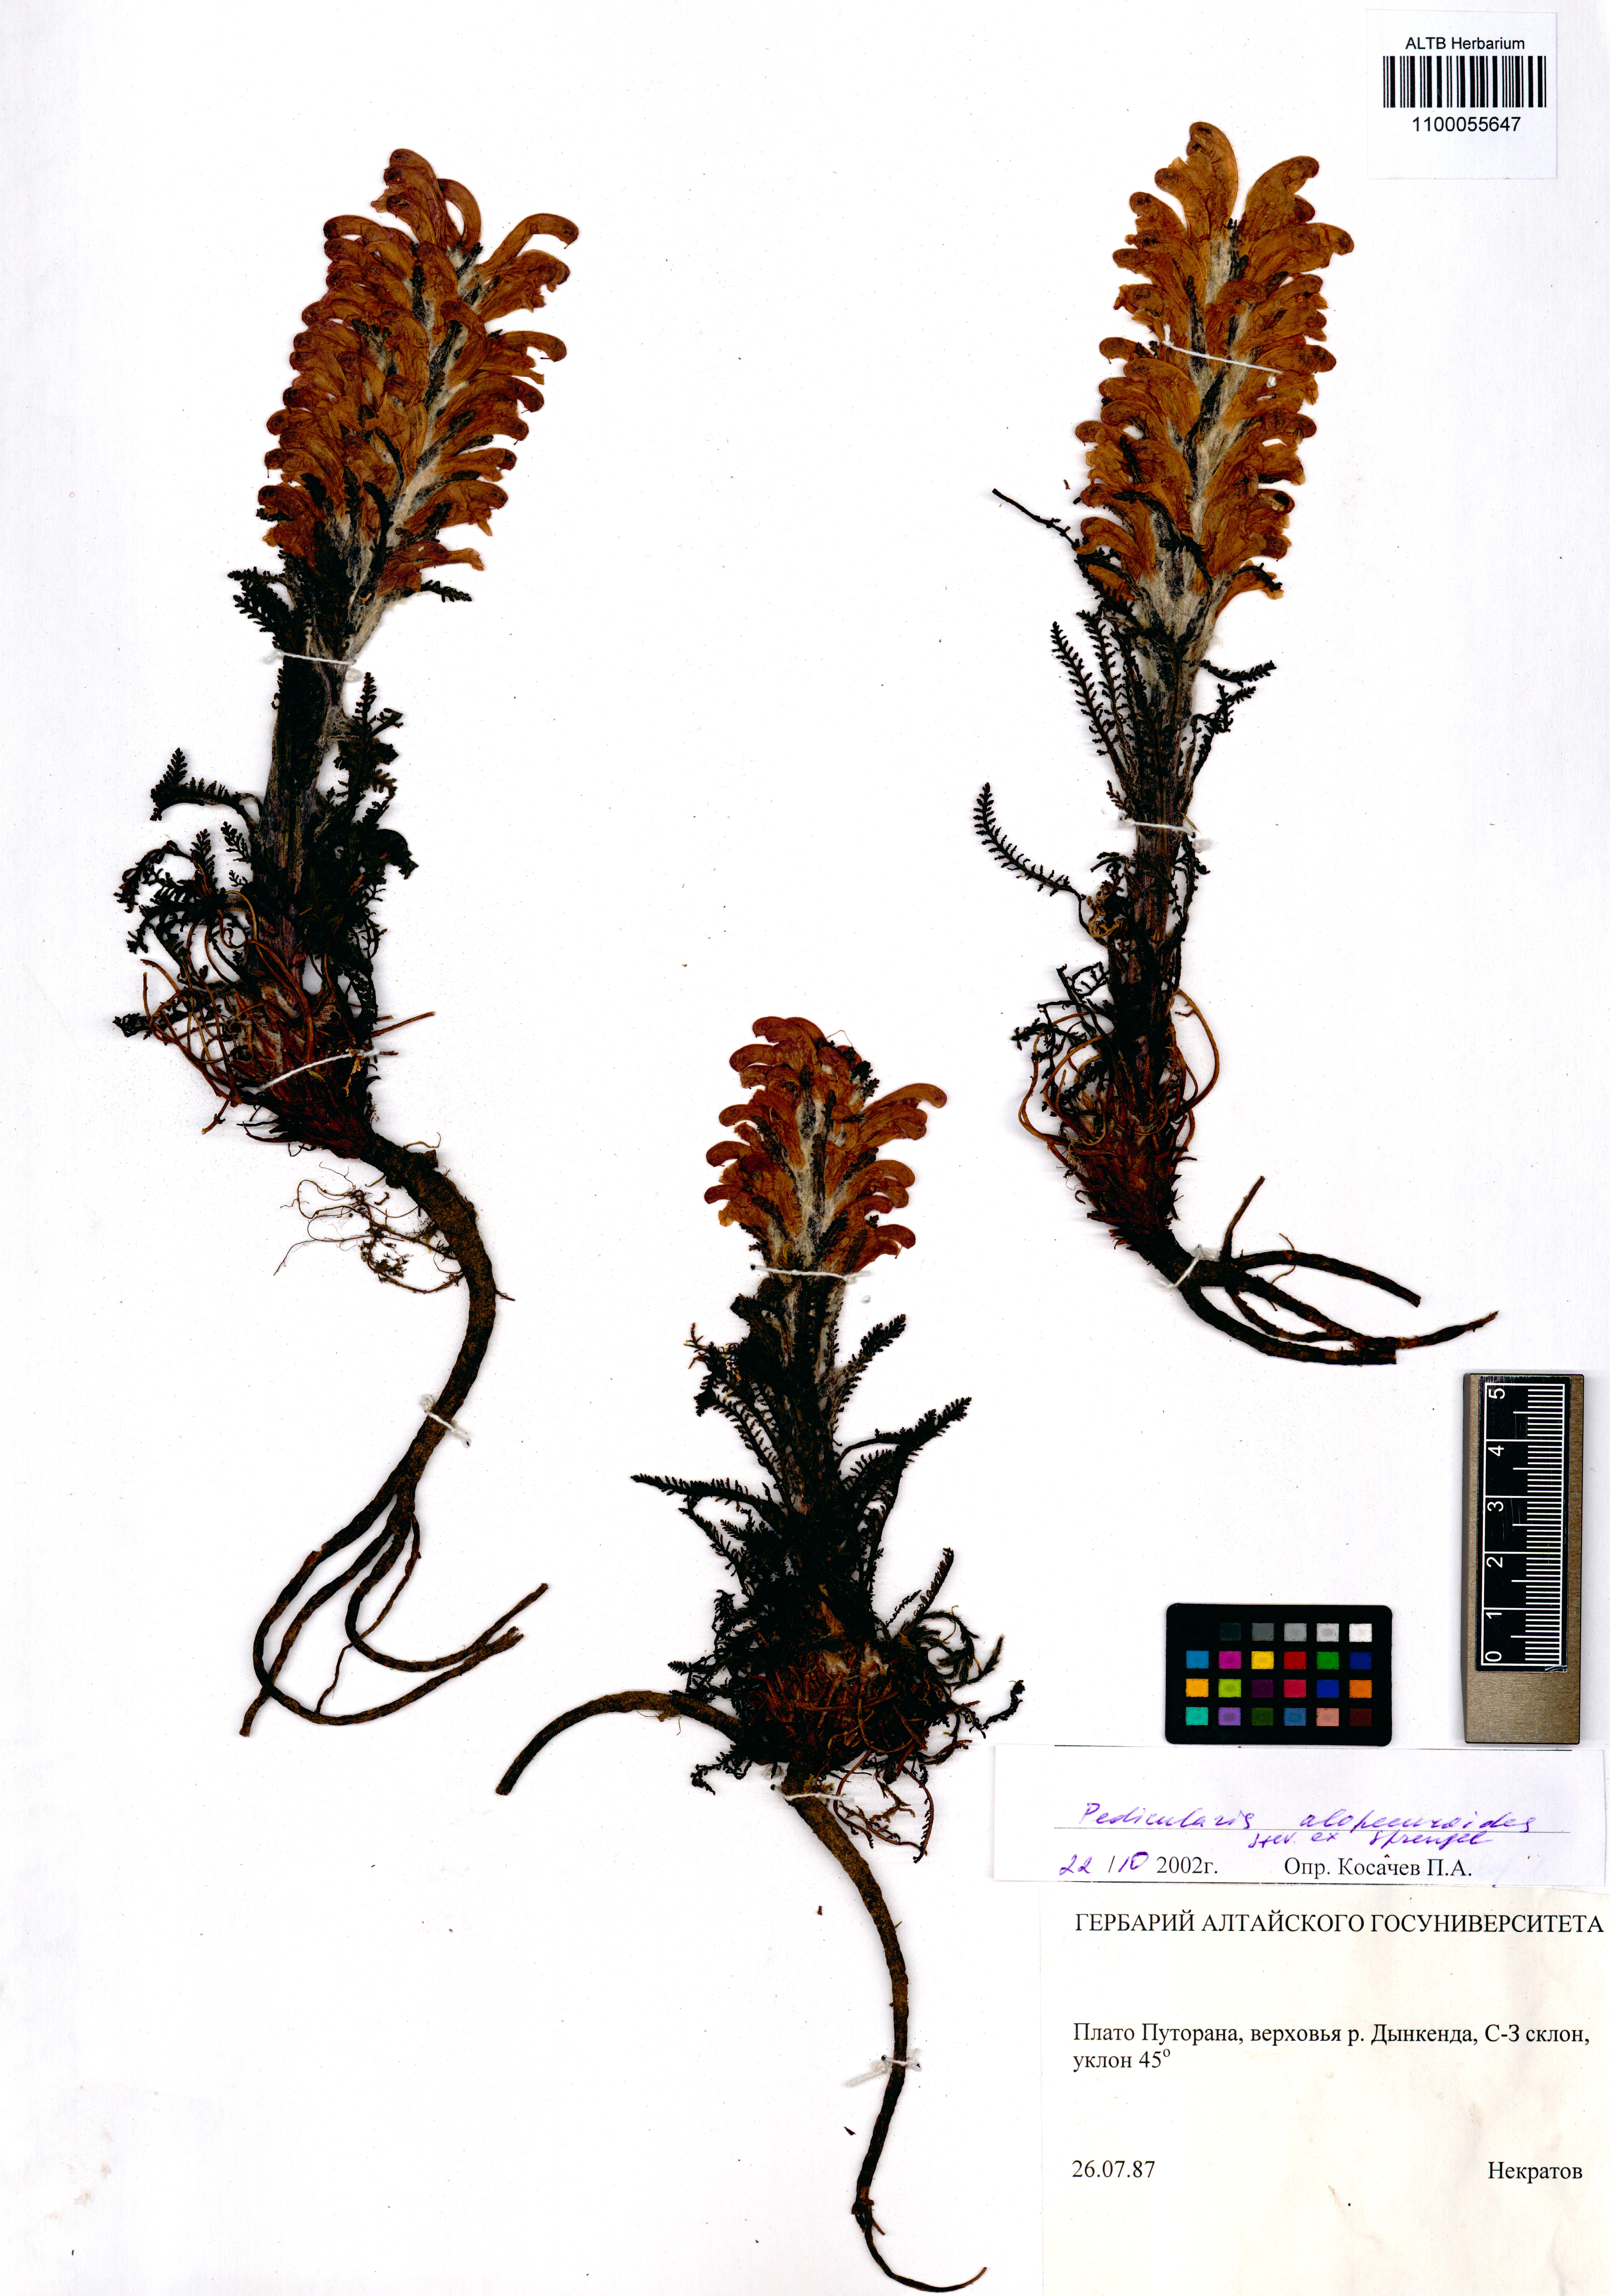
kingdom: Plantae
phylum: Tracheophyta
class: Magnoliopsida
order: Lamiales
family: Orobanchaceae
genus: Pedicularis
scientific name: Pedicularis alopecuroides
